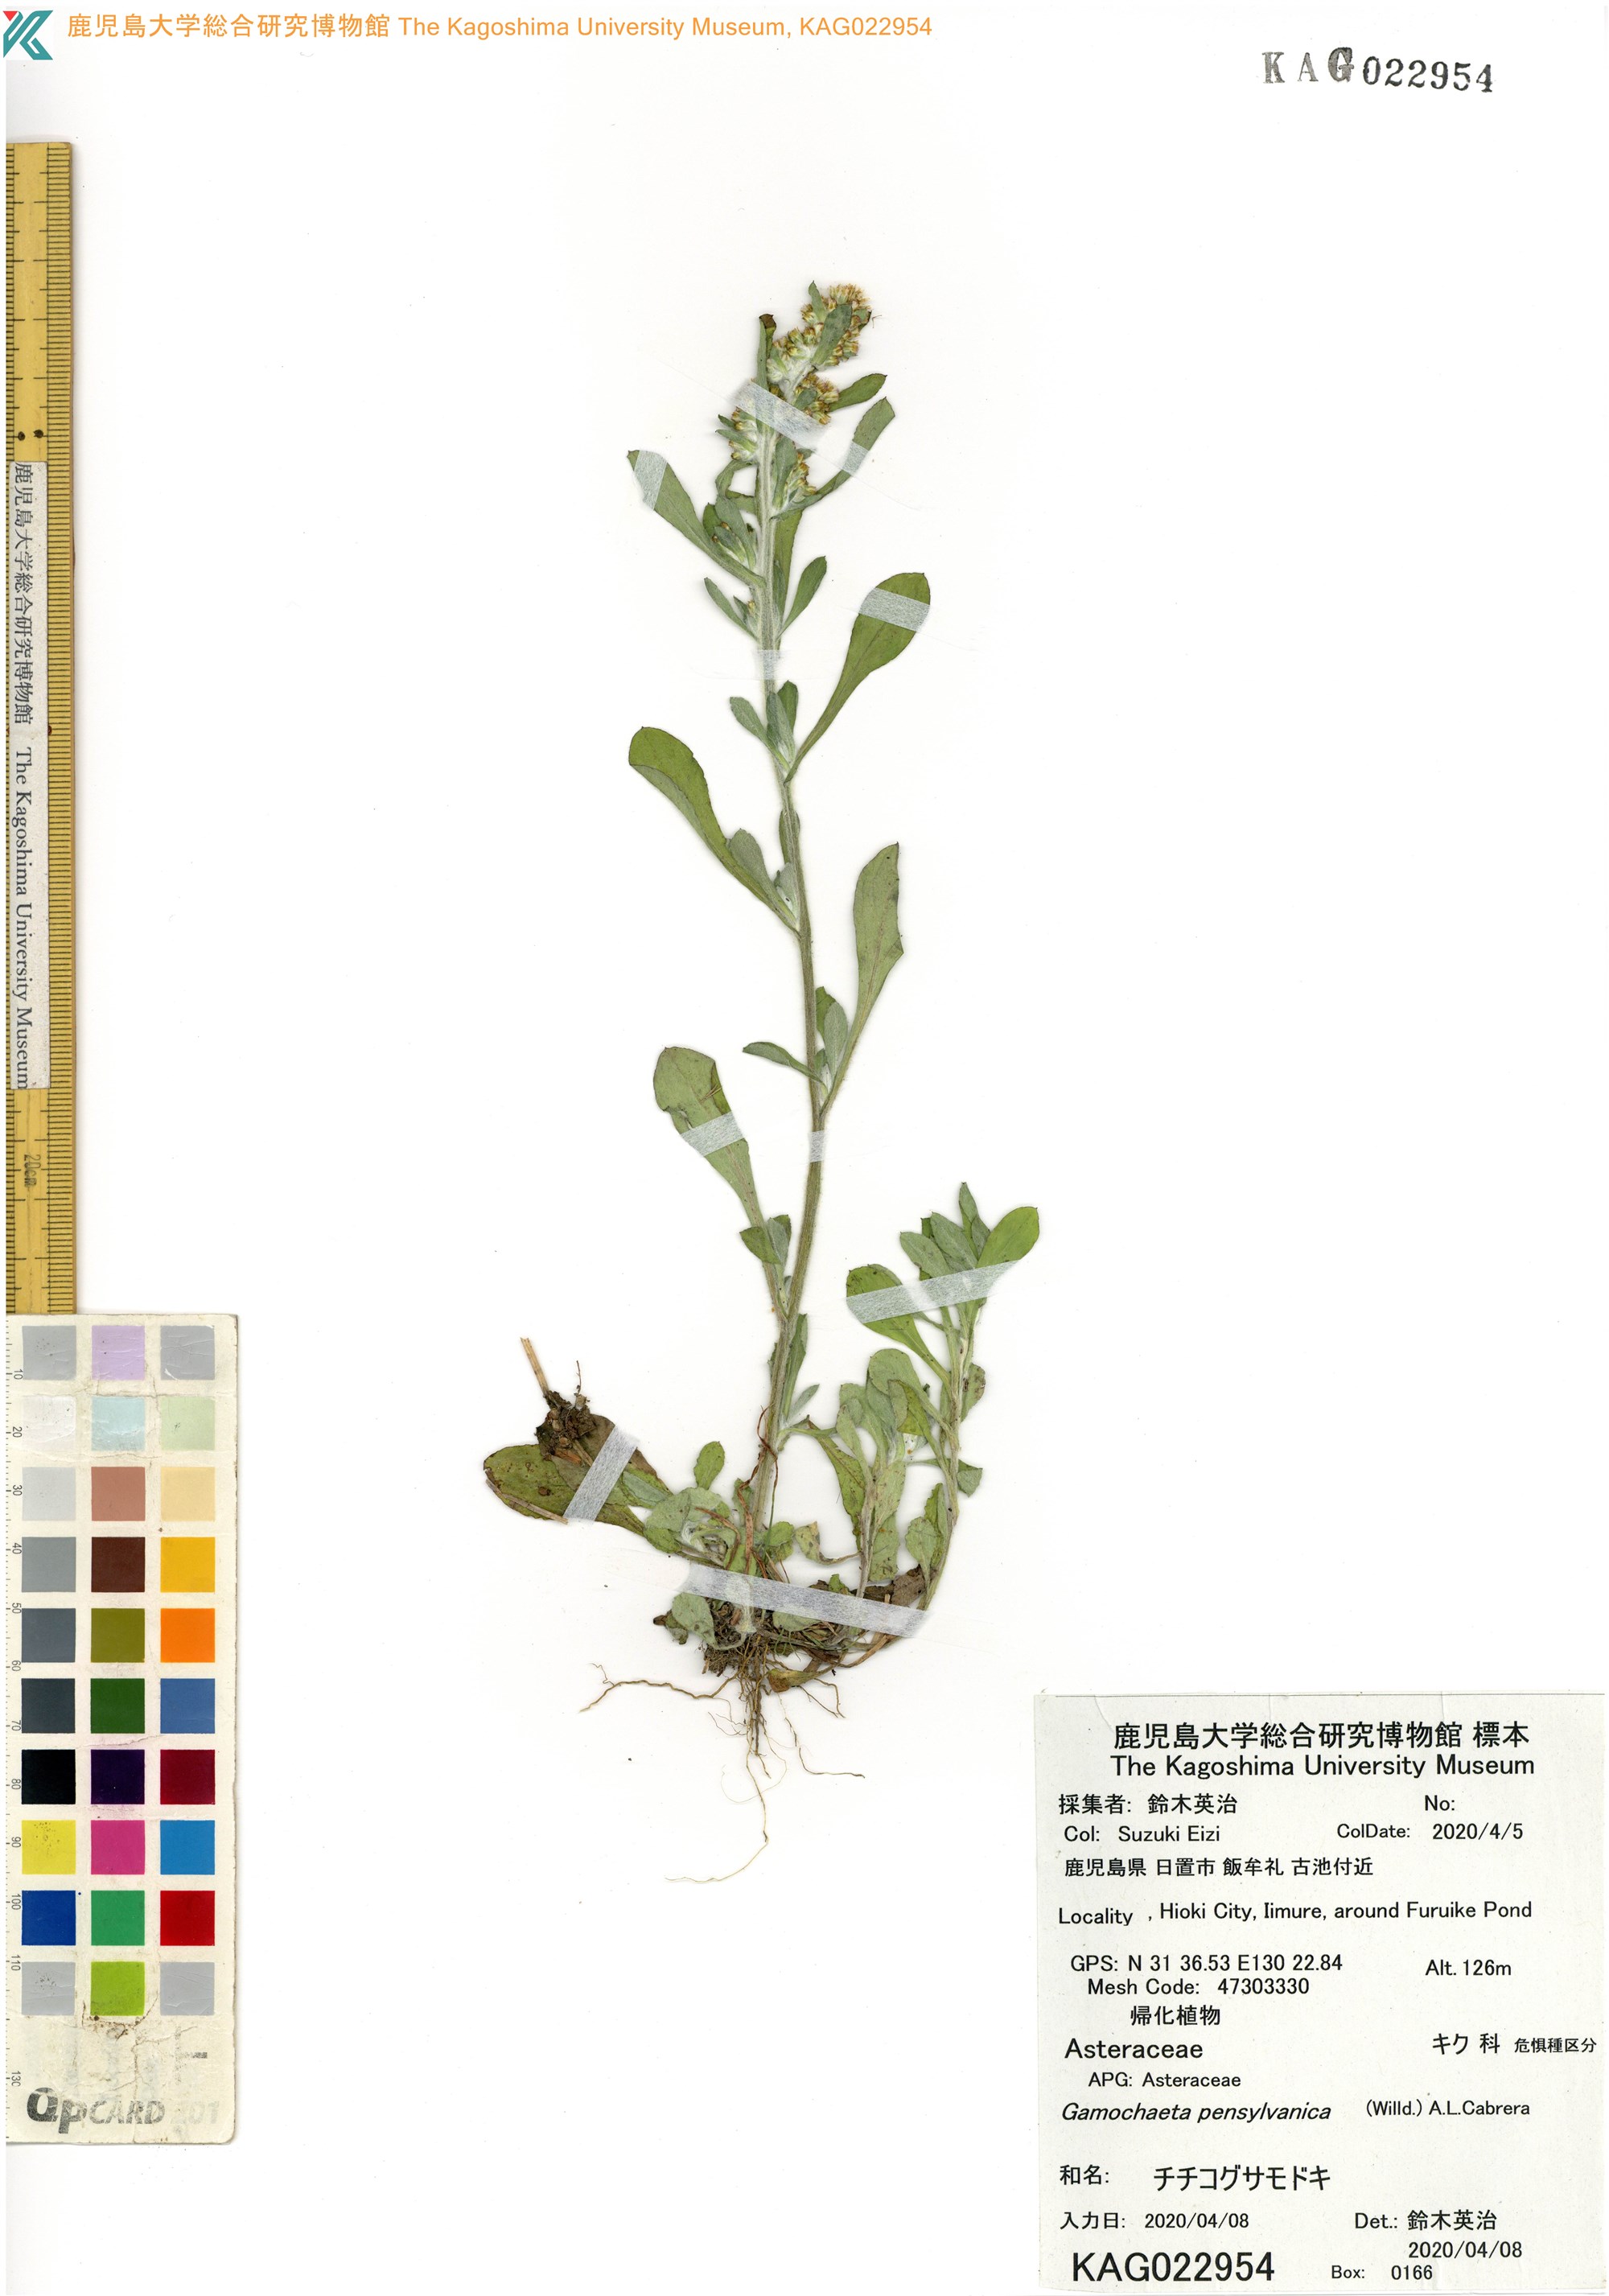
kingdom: Plantae
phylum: Tracheophyta
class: Magnoliopsida
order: Asterales
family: Asteraceae
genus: Gamochaeta
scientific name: Gamochaeta pensylvanica
